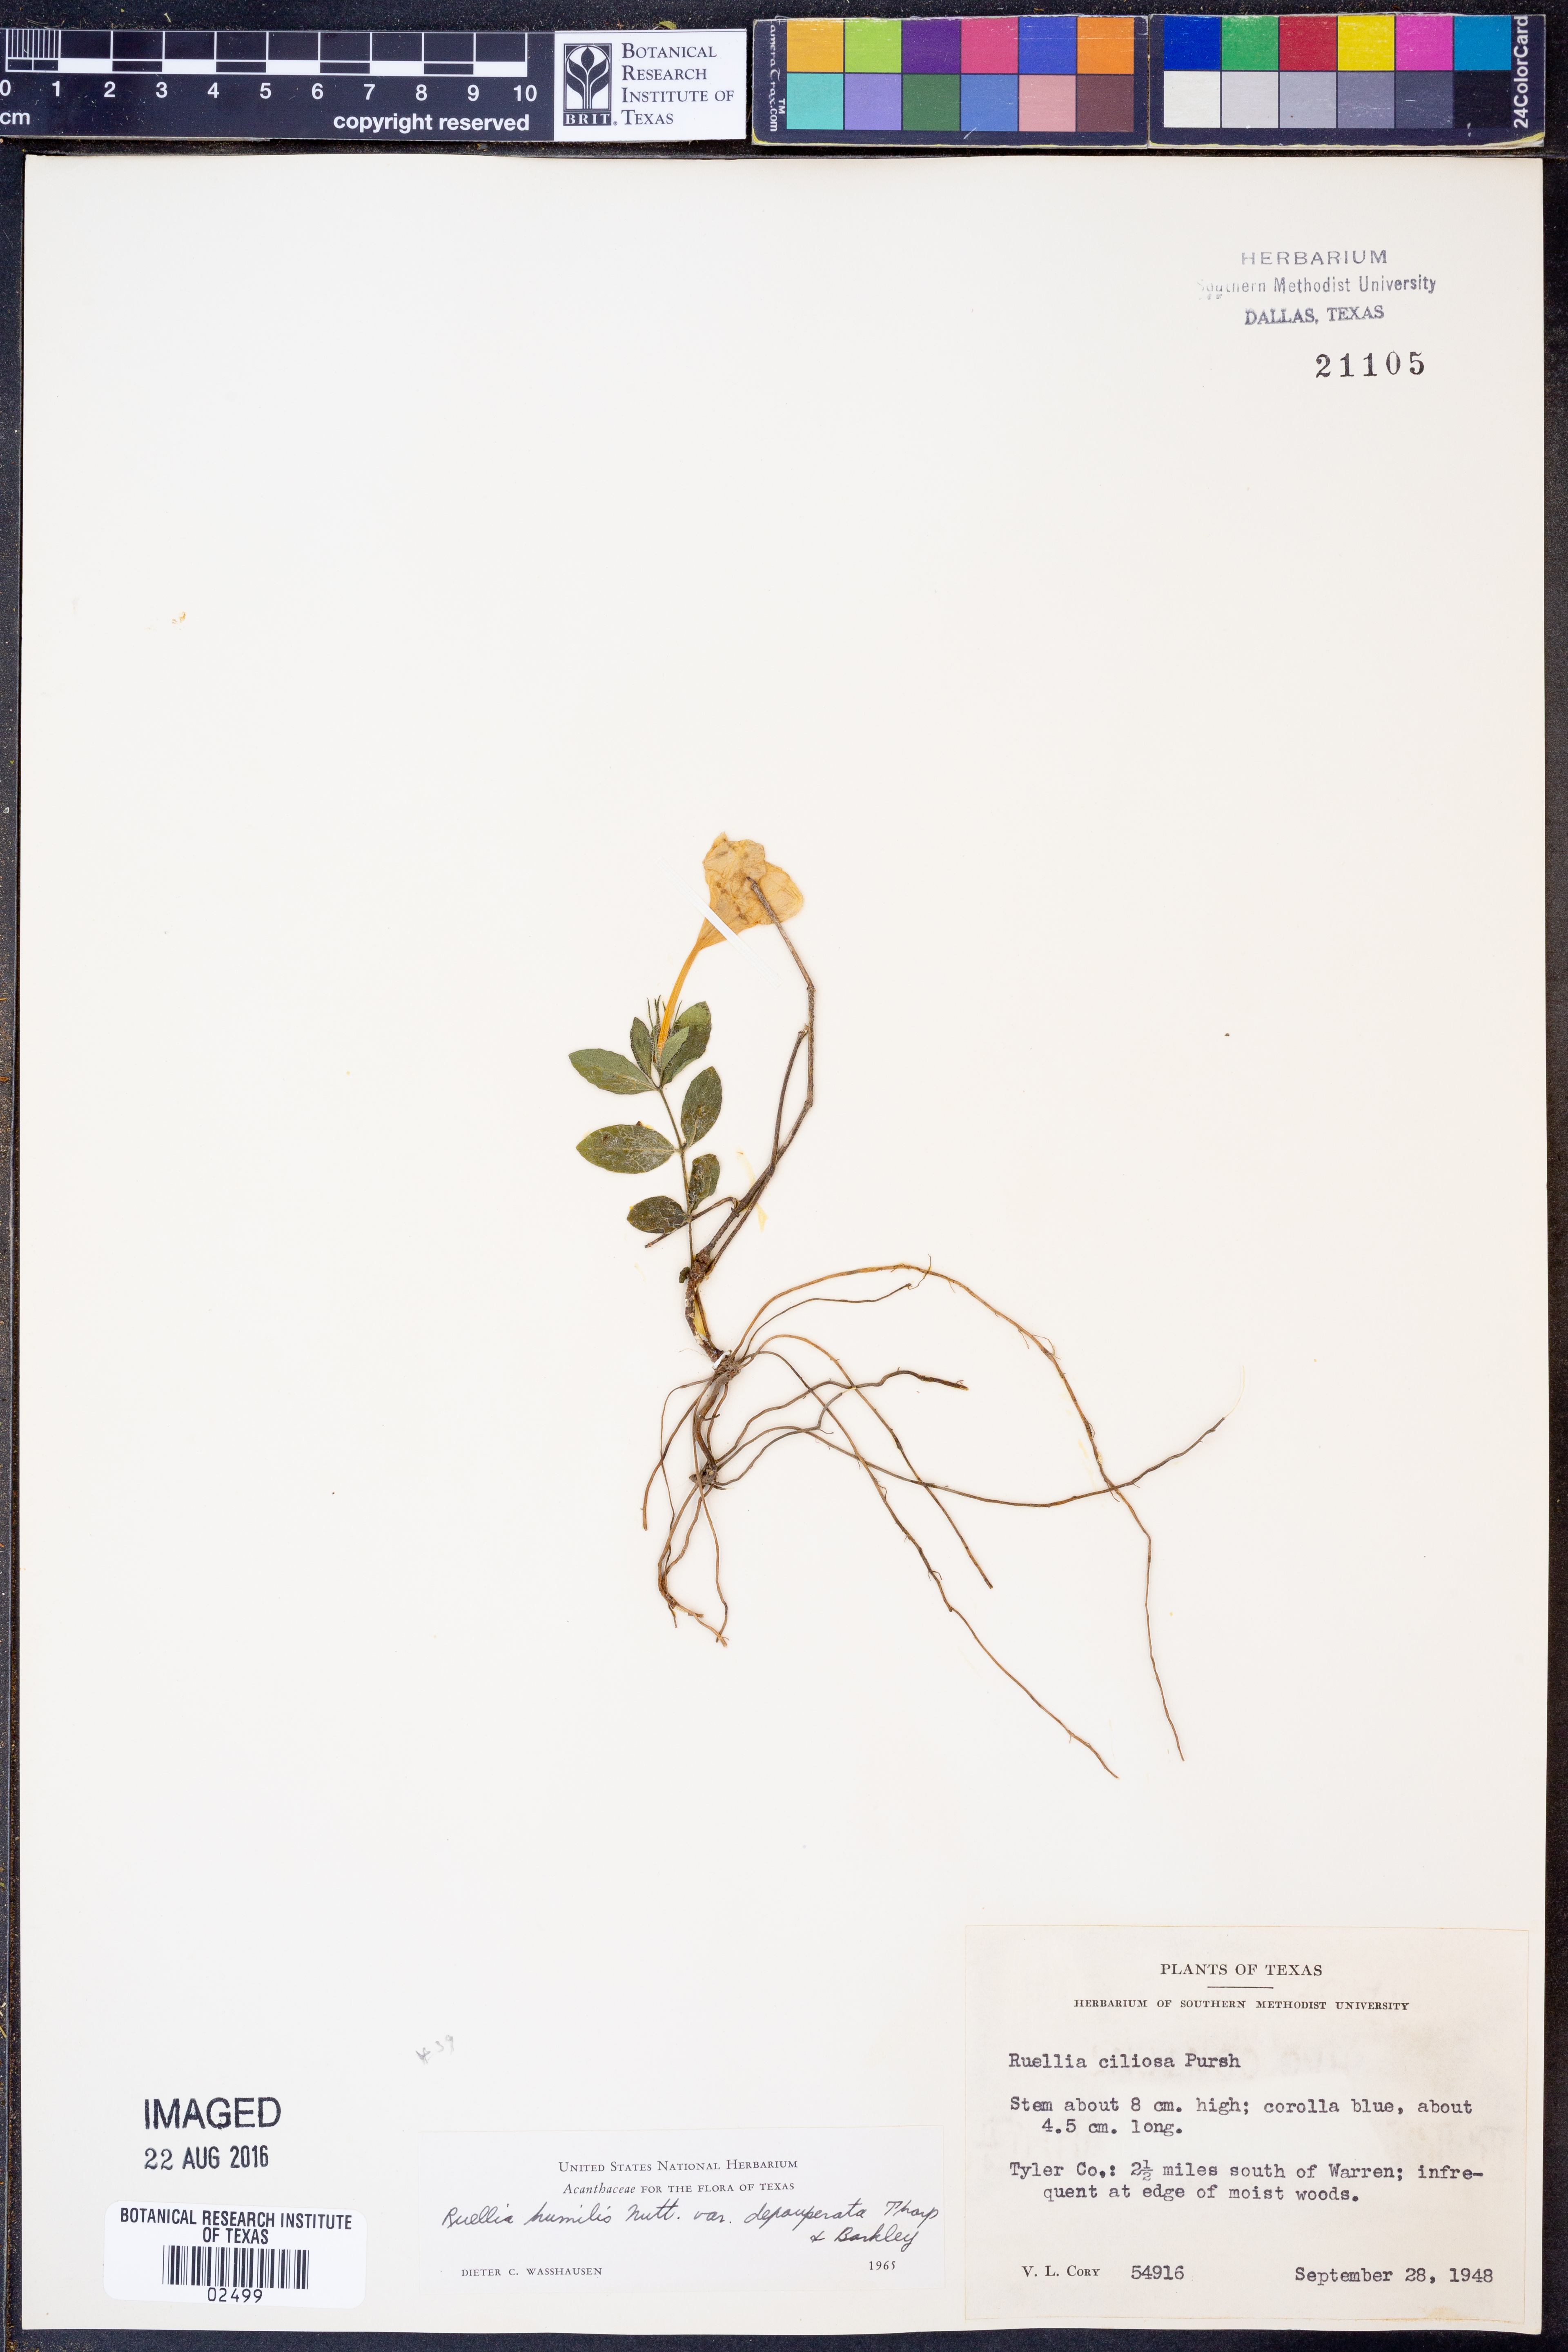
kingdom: Plantae
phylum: Tracheophyta
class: Magnoliopsida
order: Lamiales
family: Acanthaceae
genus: Ruellia
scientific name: Ruellia humilis
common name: Fringe-leaf ruellia
